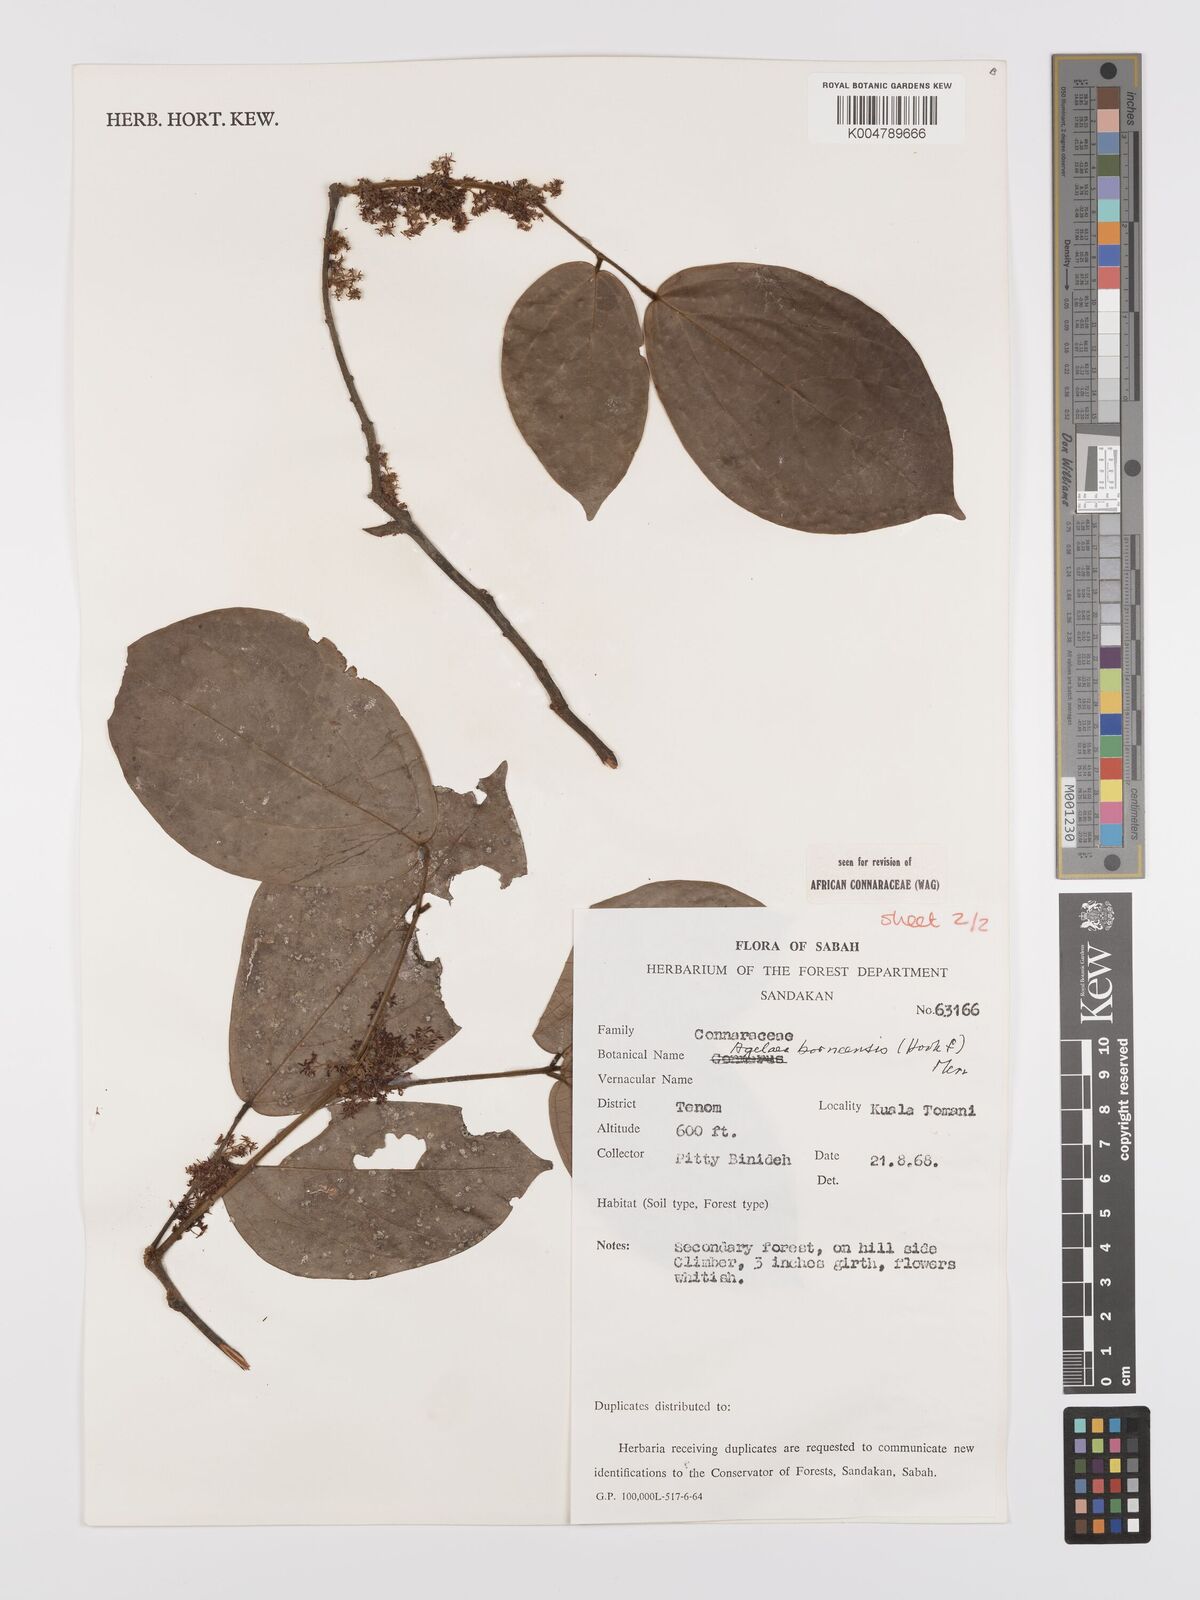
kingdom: Plantae
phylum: Tracheophyta
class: Magnoliopsida
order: Oxalidales
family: Connaraceae
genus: Agelaea
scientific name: Agelaea borneensis
